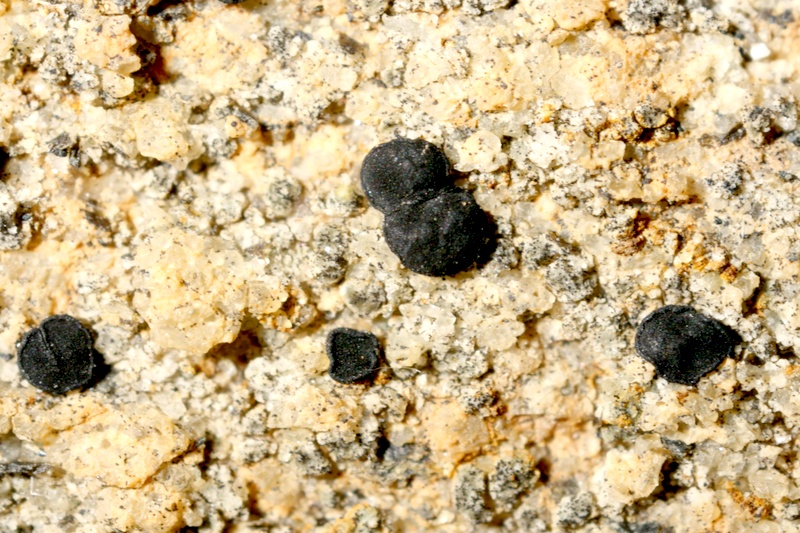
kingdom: Fungi
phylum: Ascomycota
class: Lecanoromycetes
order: Lecideales
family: Lecideaceae
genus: Lecidea
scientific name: Lecidea
